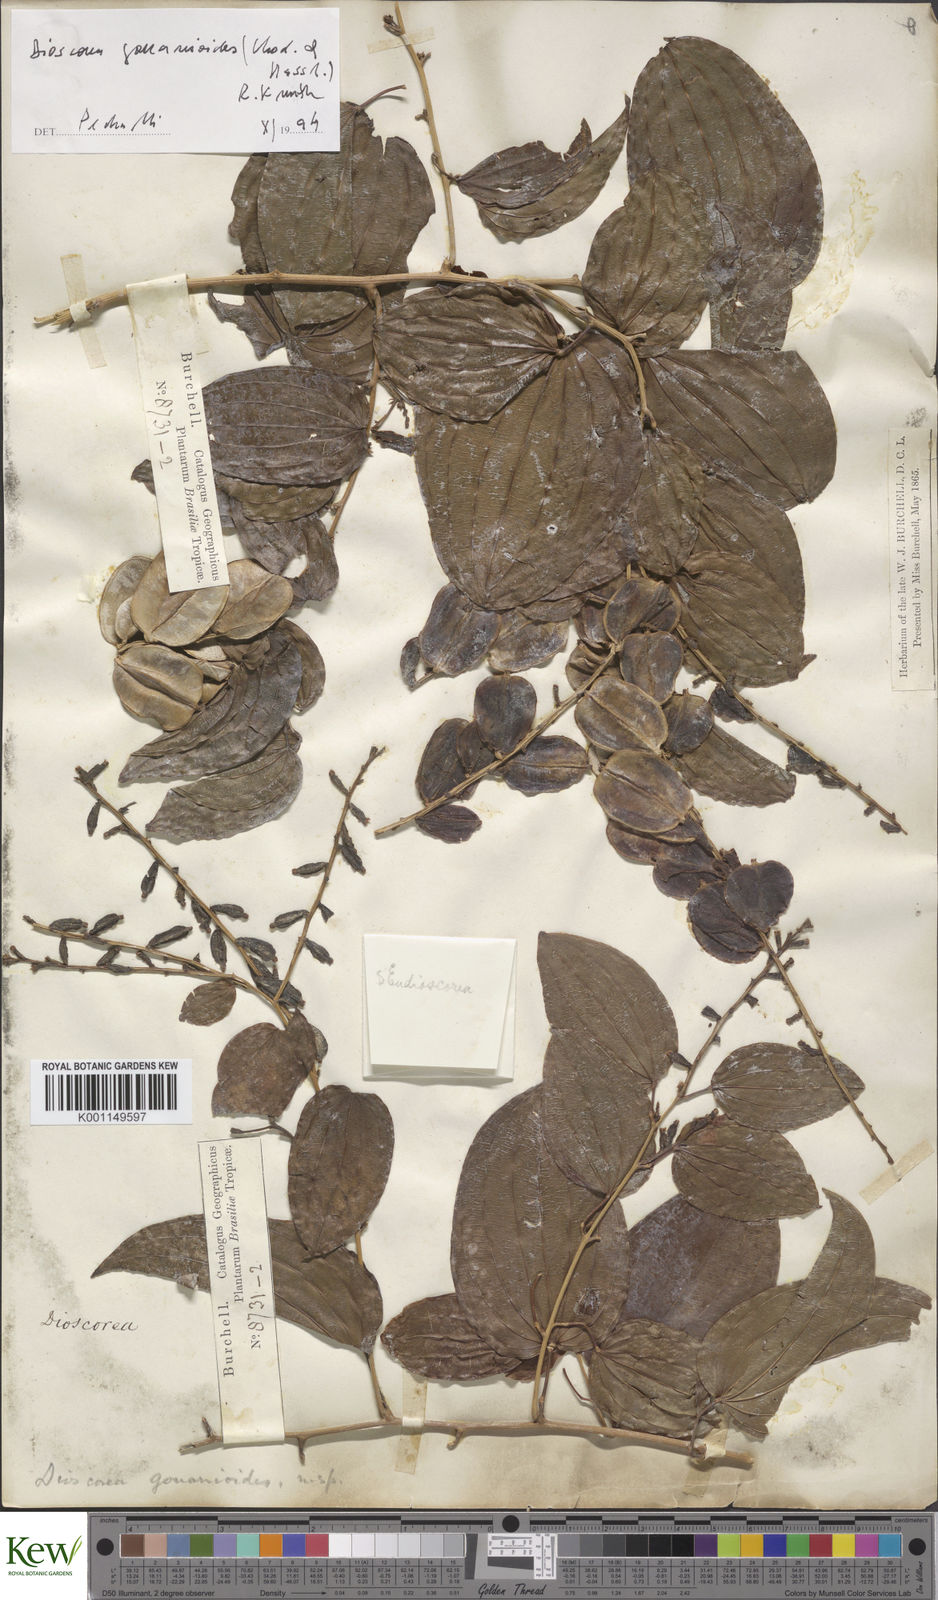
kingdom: Plantae
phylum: Tracheophyta
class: Liliopsida
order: Dioscoreales
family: Dioscoreaceae
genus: Dioscorea
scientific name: Dioscorea acanthogene
